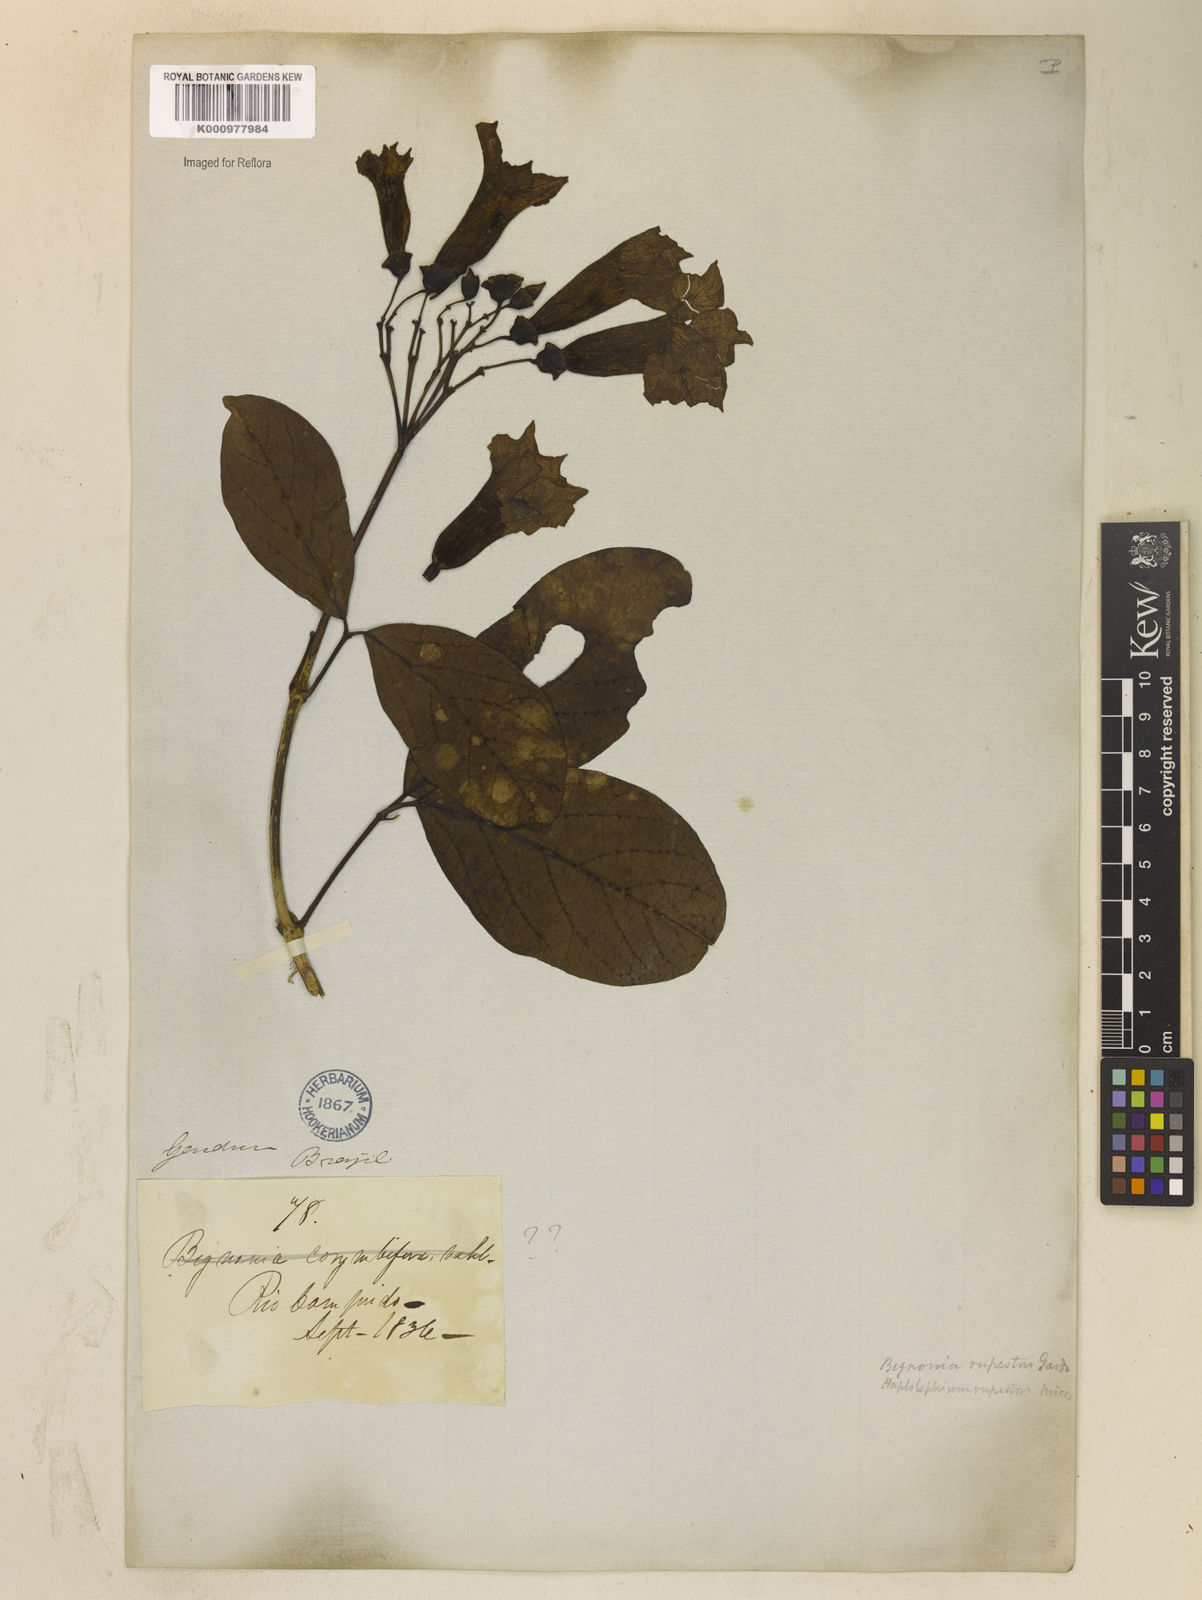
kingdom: Plantae
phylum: Tracheophyta
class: Magnoliopsida
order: Lamiales
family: Bignoniaceae
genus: Tanaecium
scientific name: Tanaecium pyramidatum
